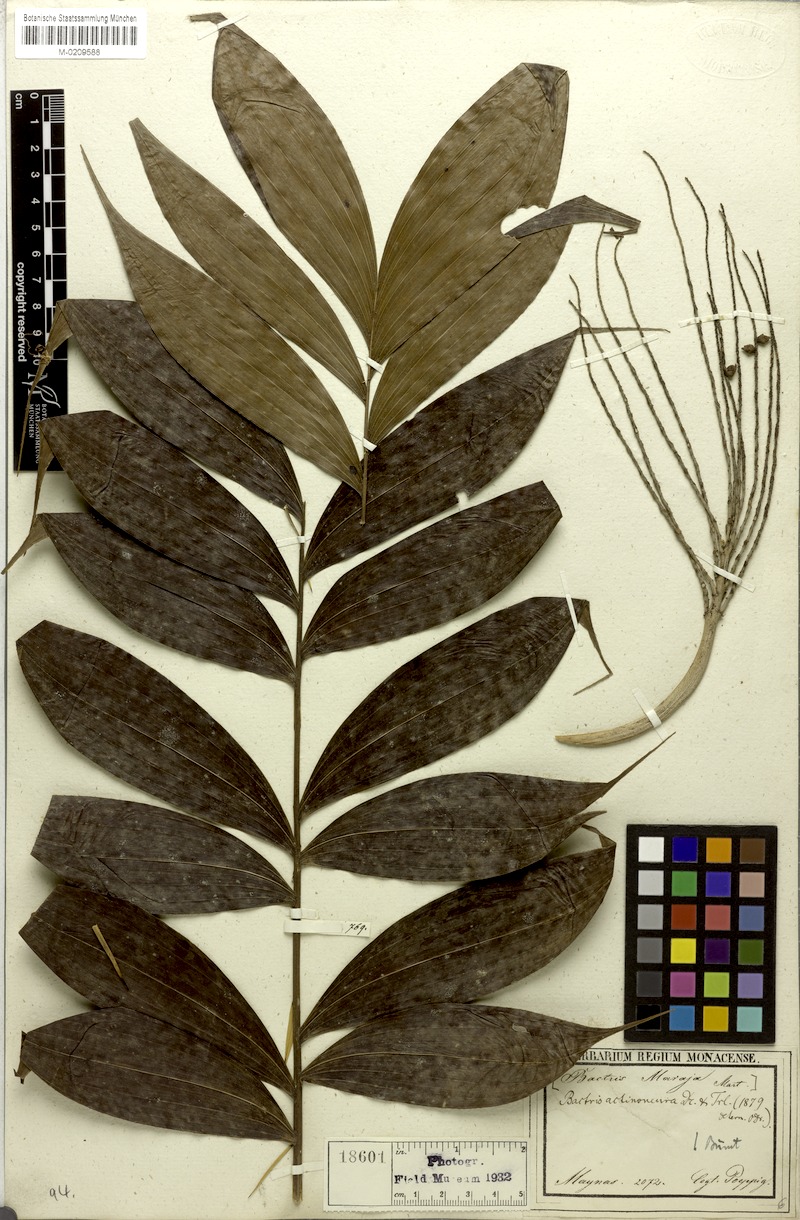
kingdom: Plantae
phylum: Tracheophyta
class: Liliopsida
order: Arecales
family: Arecaceae
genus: Bactris
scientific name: Bactris maraja
